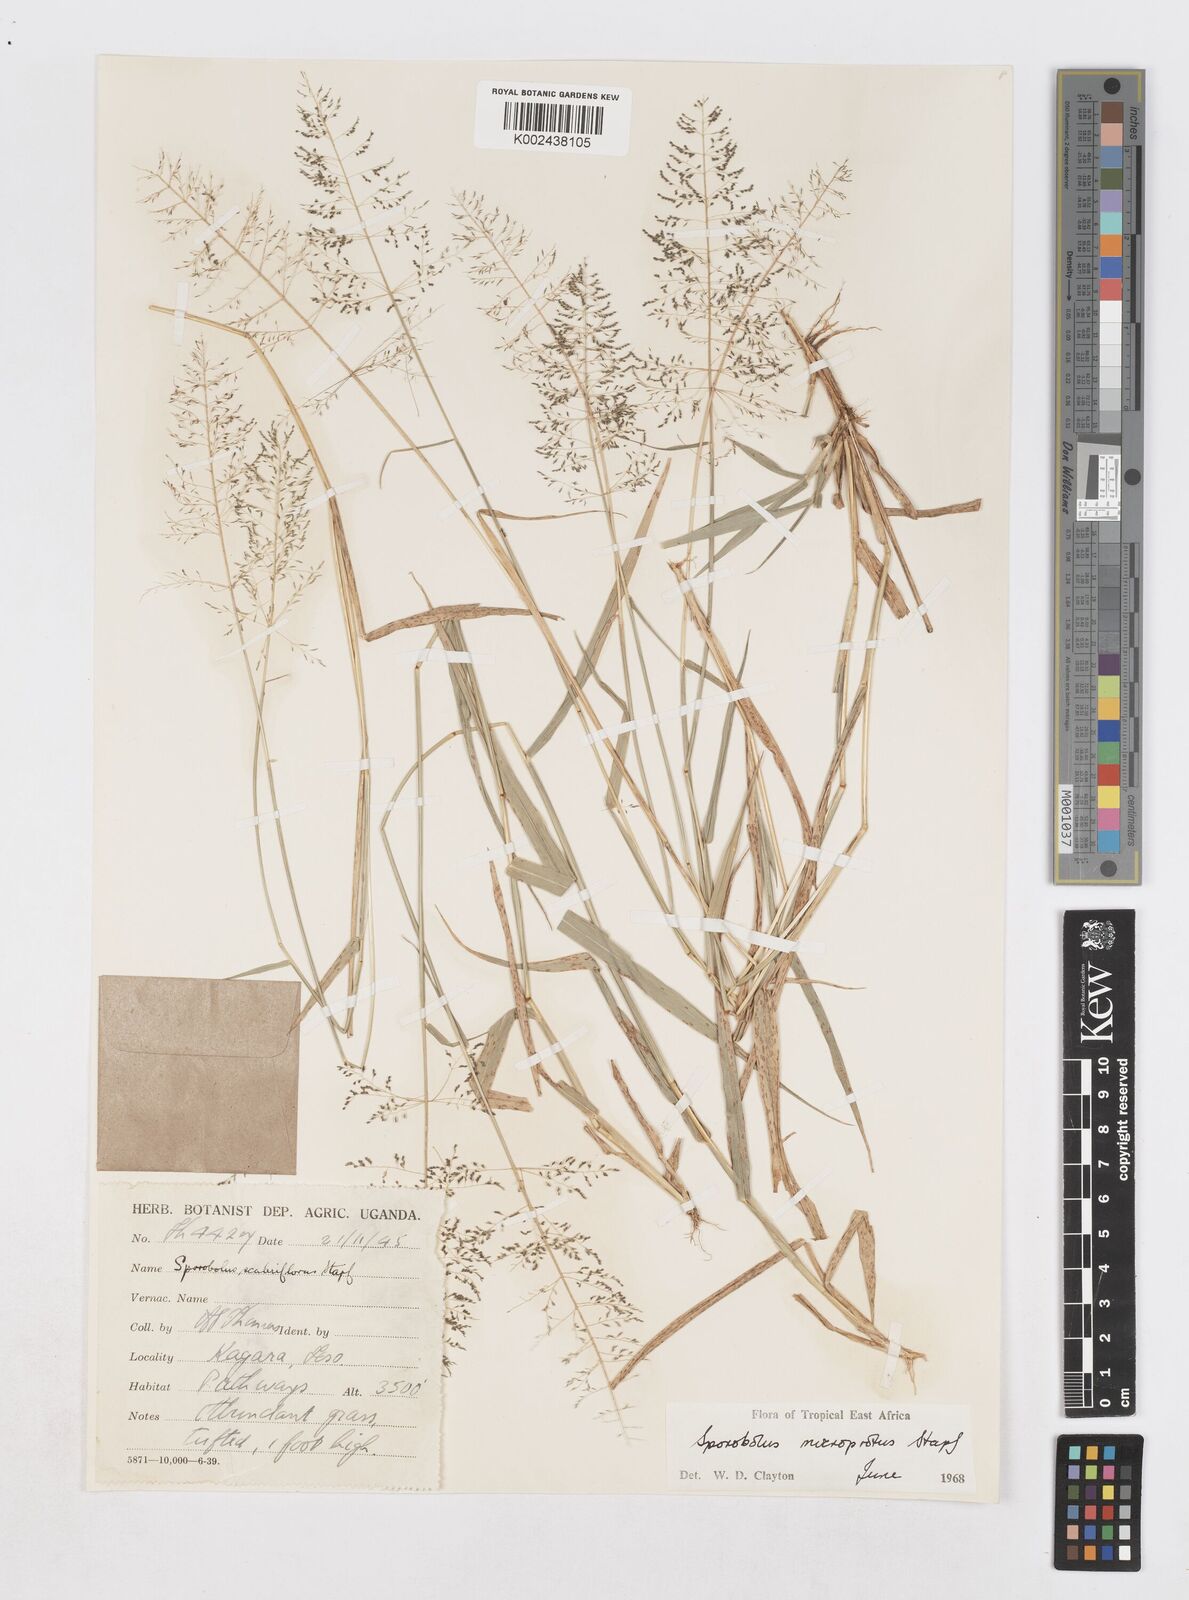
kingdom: Plantae
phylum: Tracheophyta
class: Liliopsida
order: Poales
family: Poaceae
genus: Sporobolus
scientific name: Sporobolus microprotus
